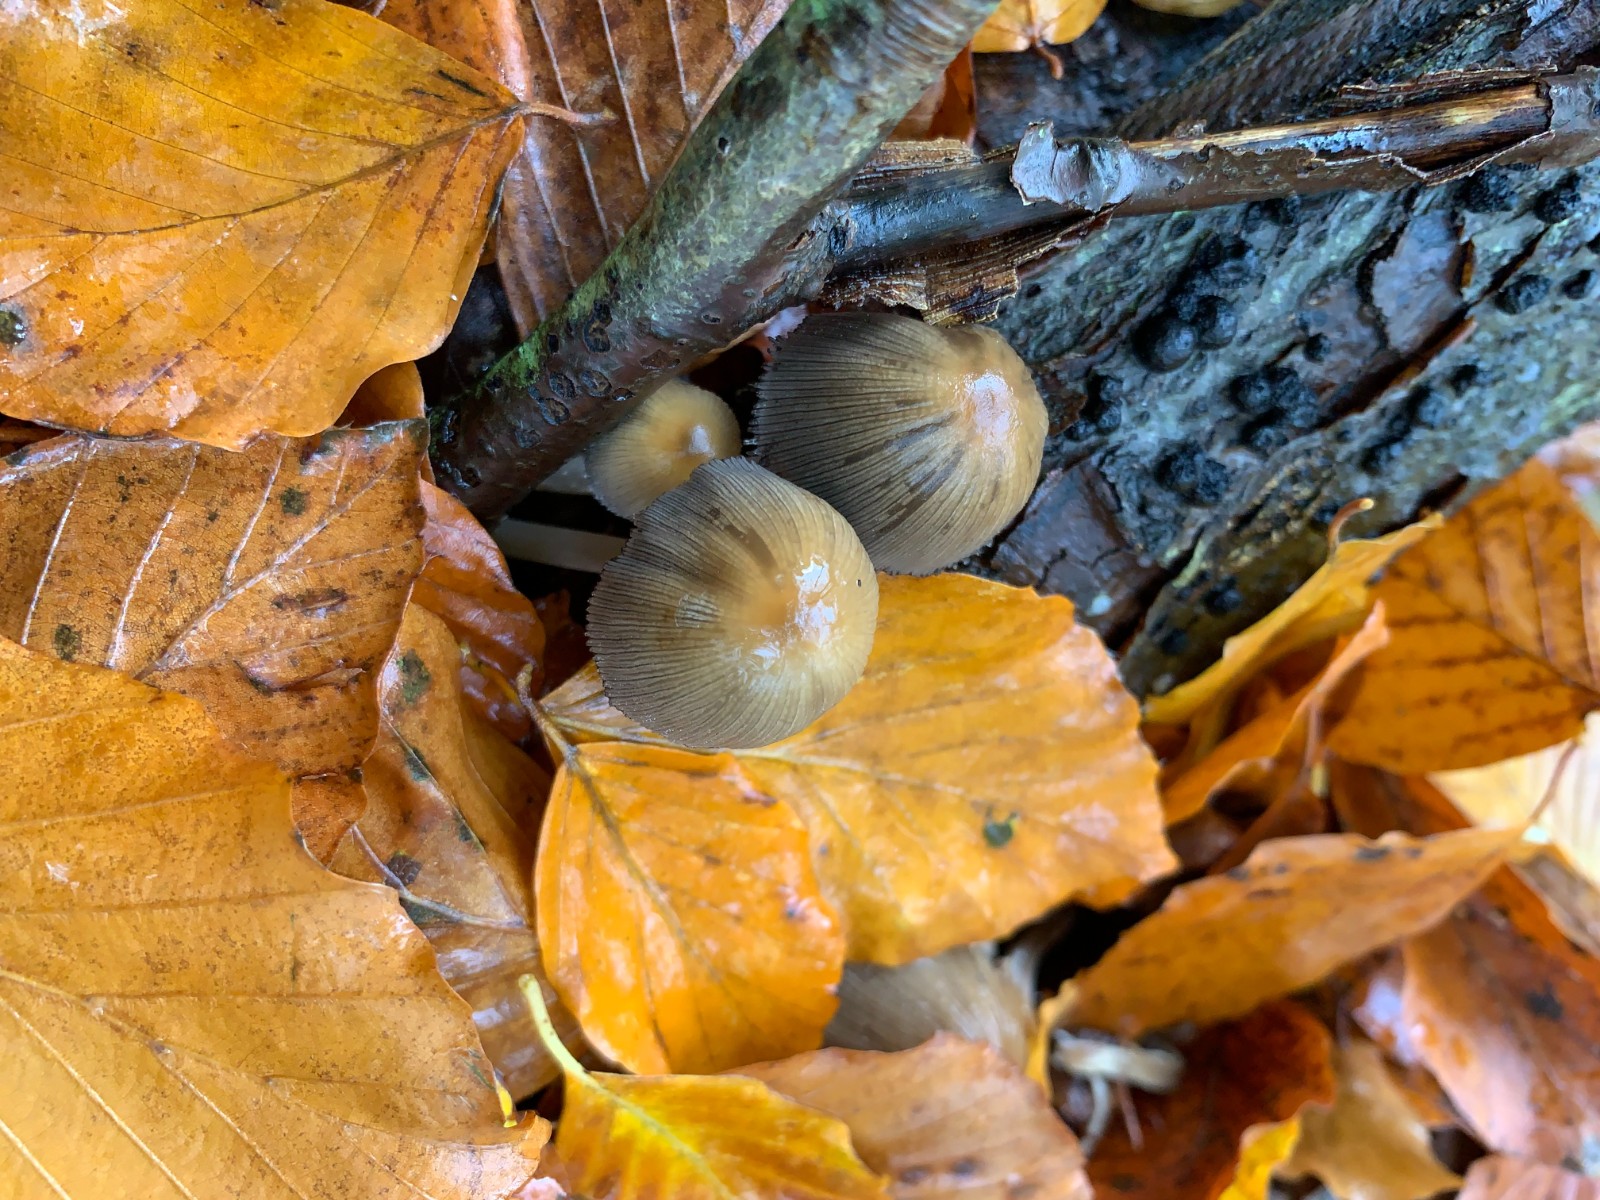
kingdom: Fungi
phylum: Basidiomycota
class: Agaricomycetes
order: Agaricales
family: Psathyrellaceae
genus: Coprinellus
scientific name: Coprinellus
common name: blækhat
